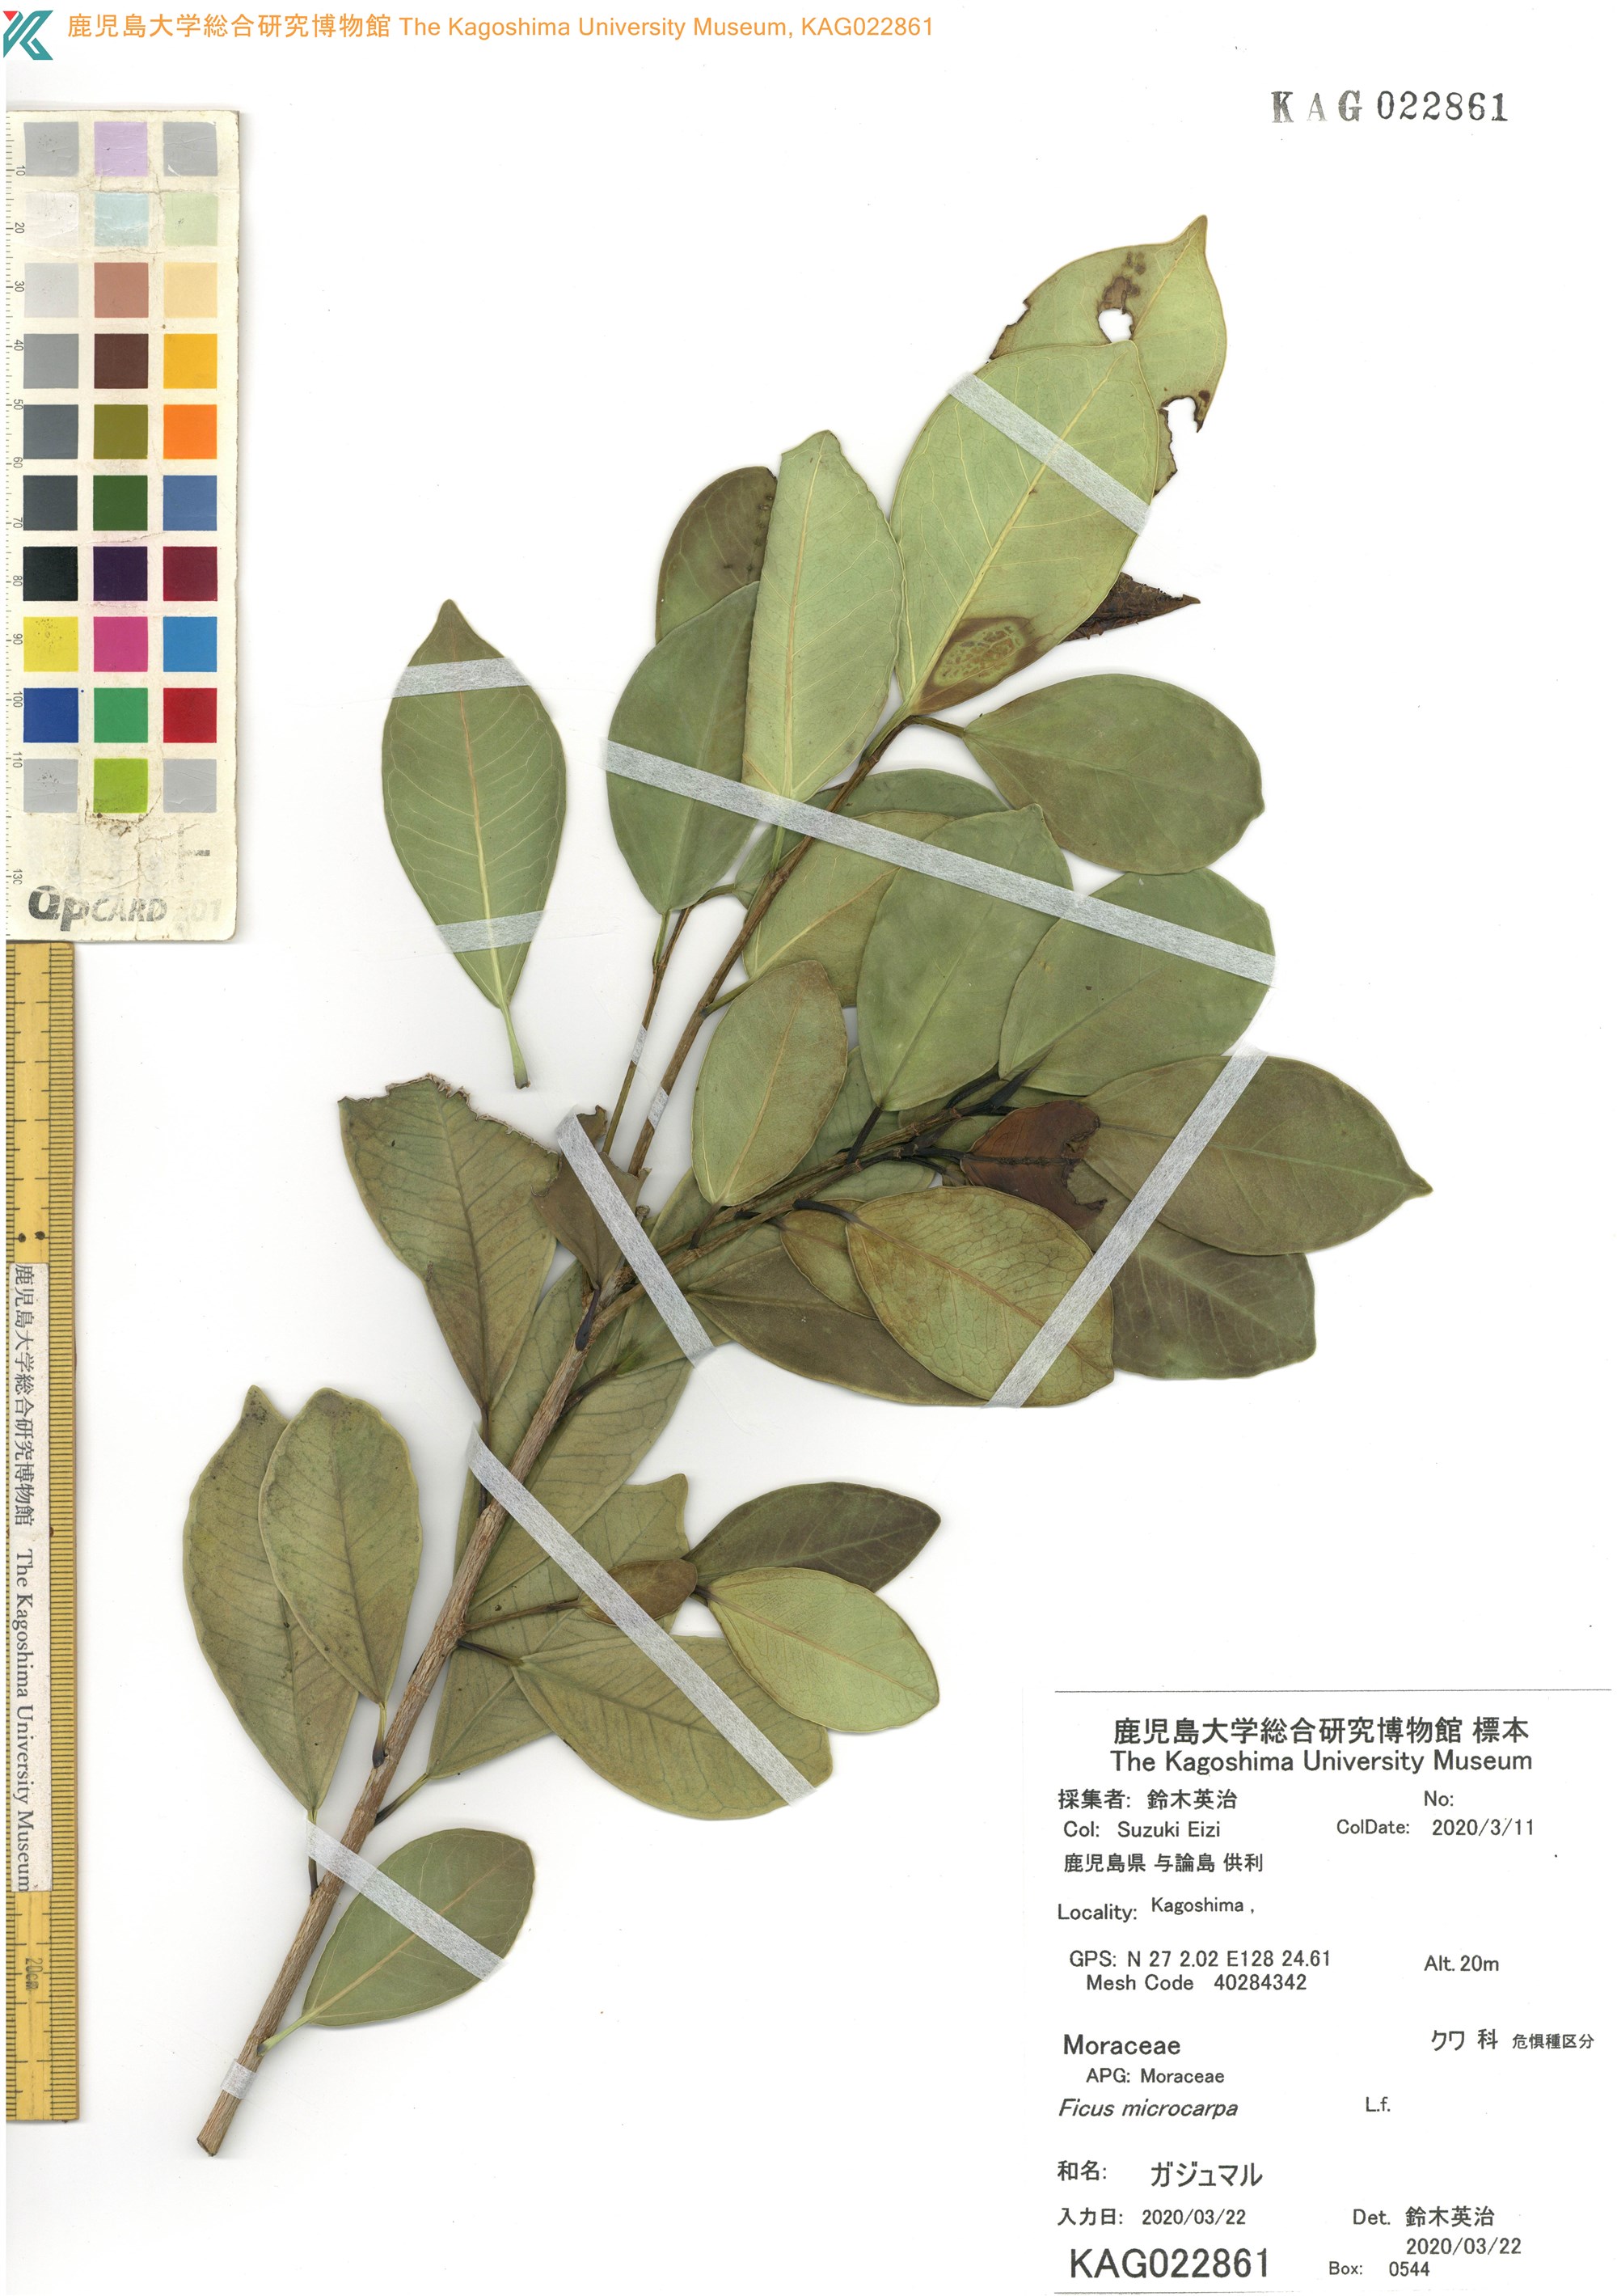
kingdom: Plantae
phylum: Tracheophyta
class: Magnoliopsida
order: Rosales
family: Moraceae
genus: Ficus
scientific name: Ficus microcarpa
